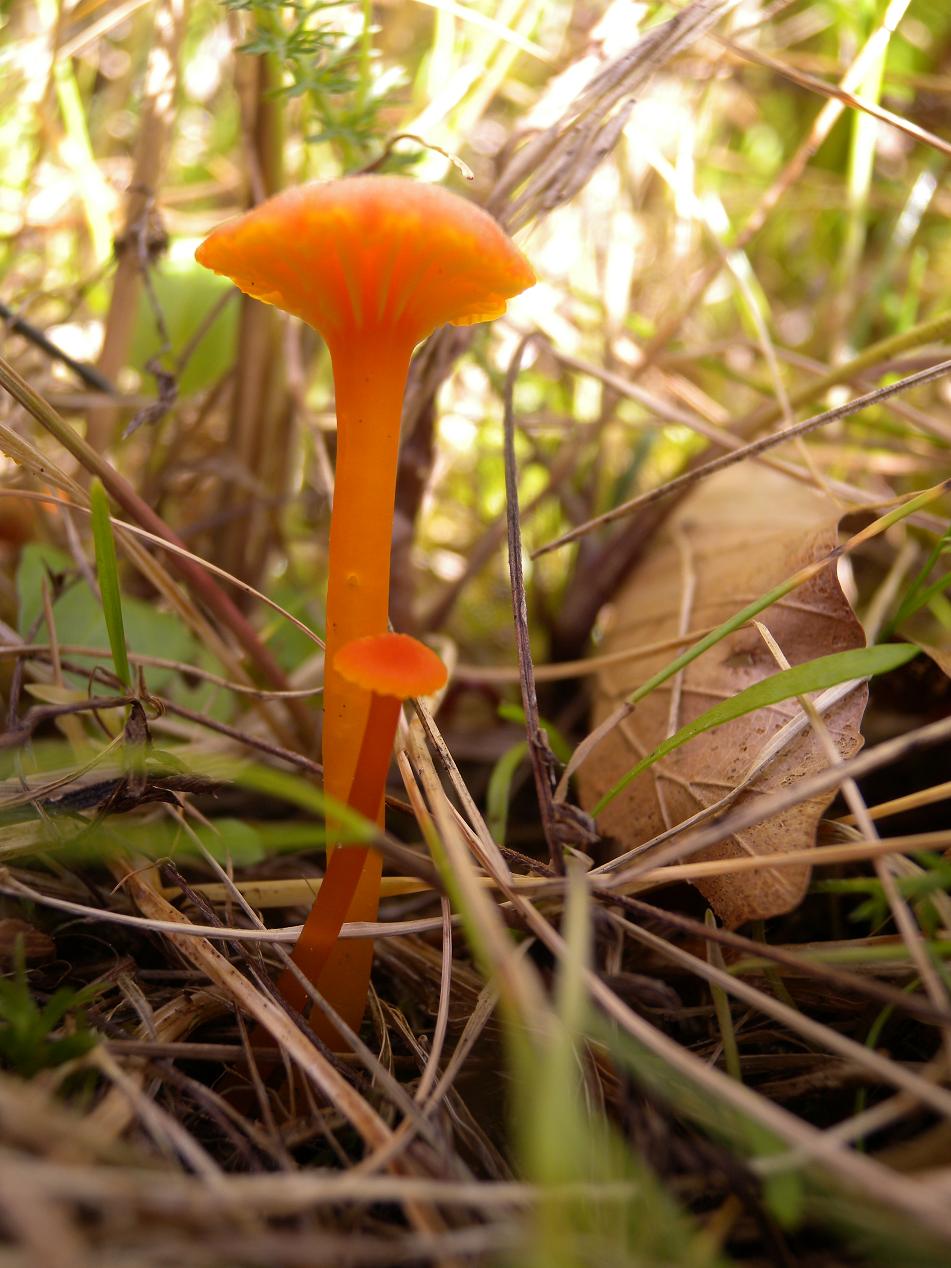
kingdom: Fungi
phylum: Basidiomycota
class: Agaricomycetes
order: Agaricales
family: Hygrophoraceae
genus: Hygrocybe
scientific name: Hygrocybe cantharellus
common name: kantarel-vokshat
